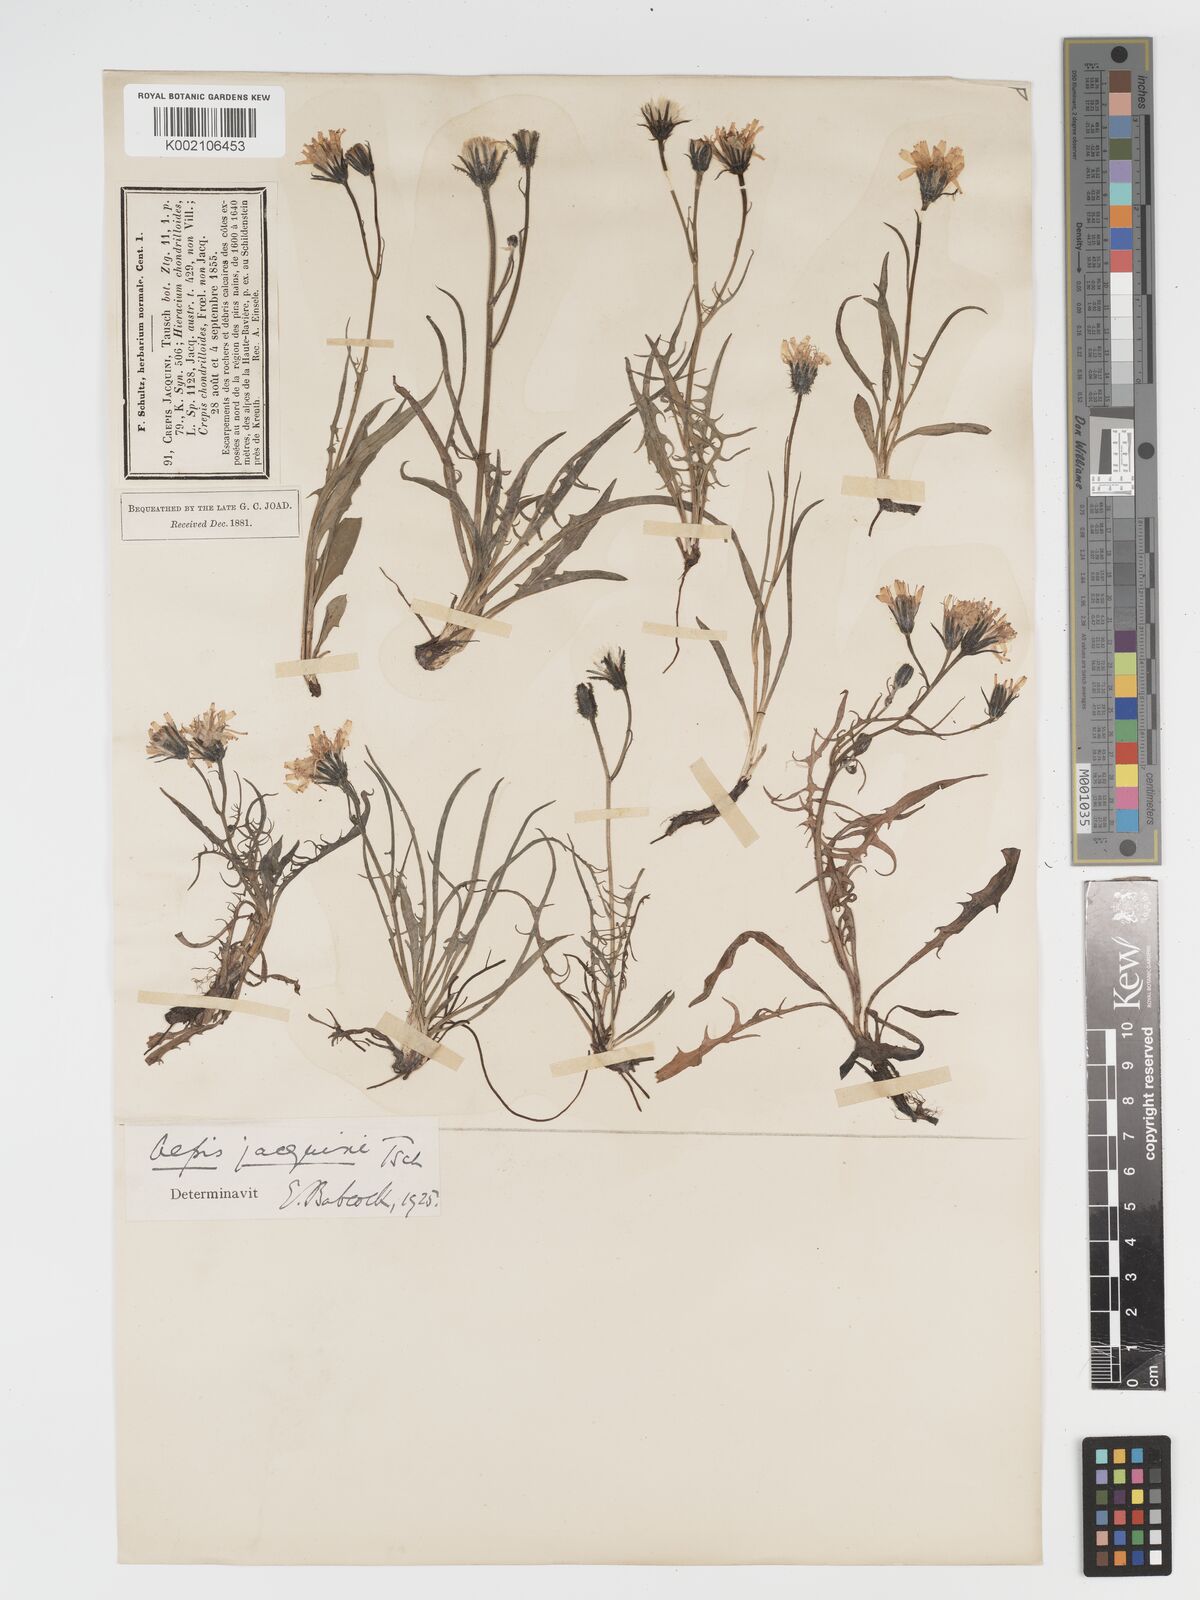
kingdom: Plantae
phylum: Tracheophyta
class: Magnoliopsida
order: Asterales
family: Asteraceae
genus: Crepis
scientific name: Crepis jacquinii
